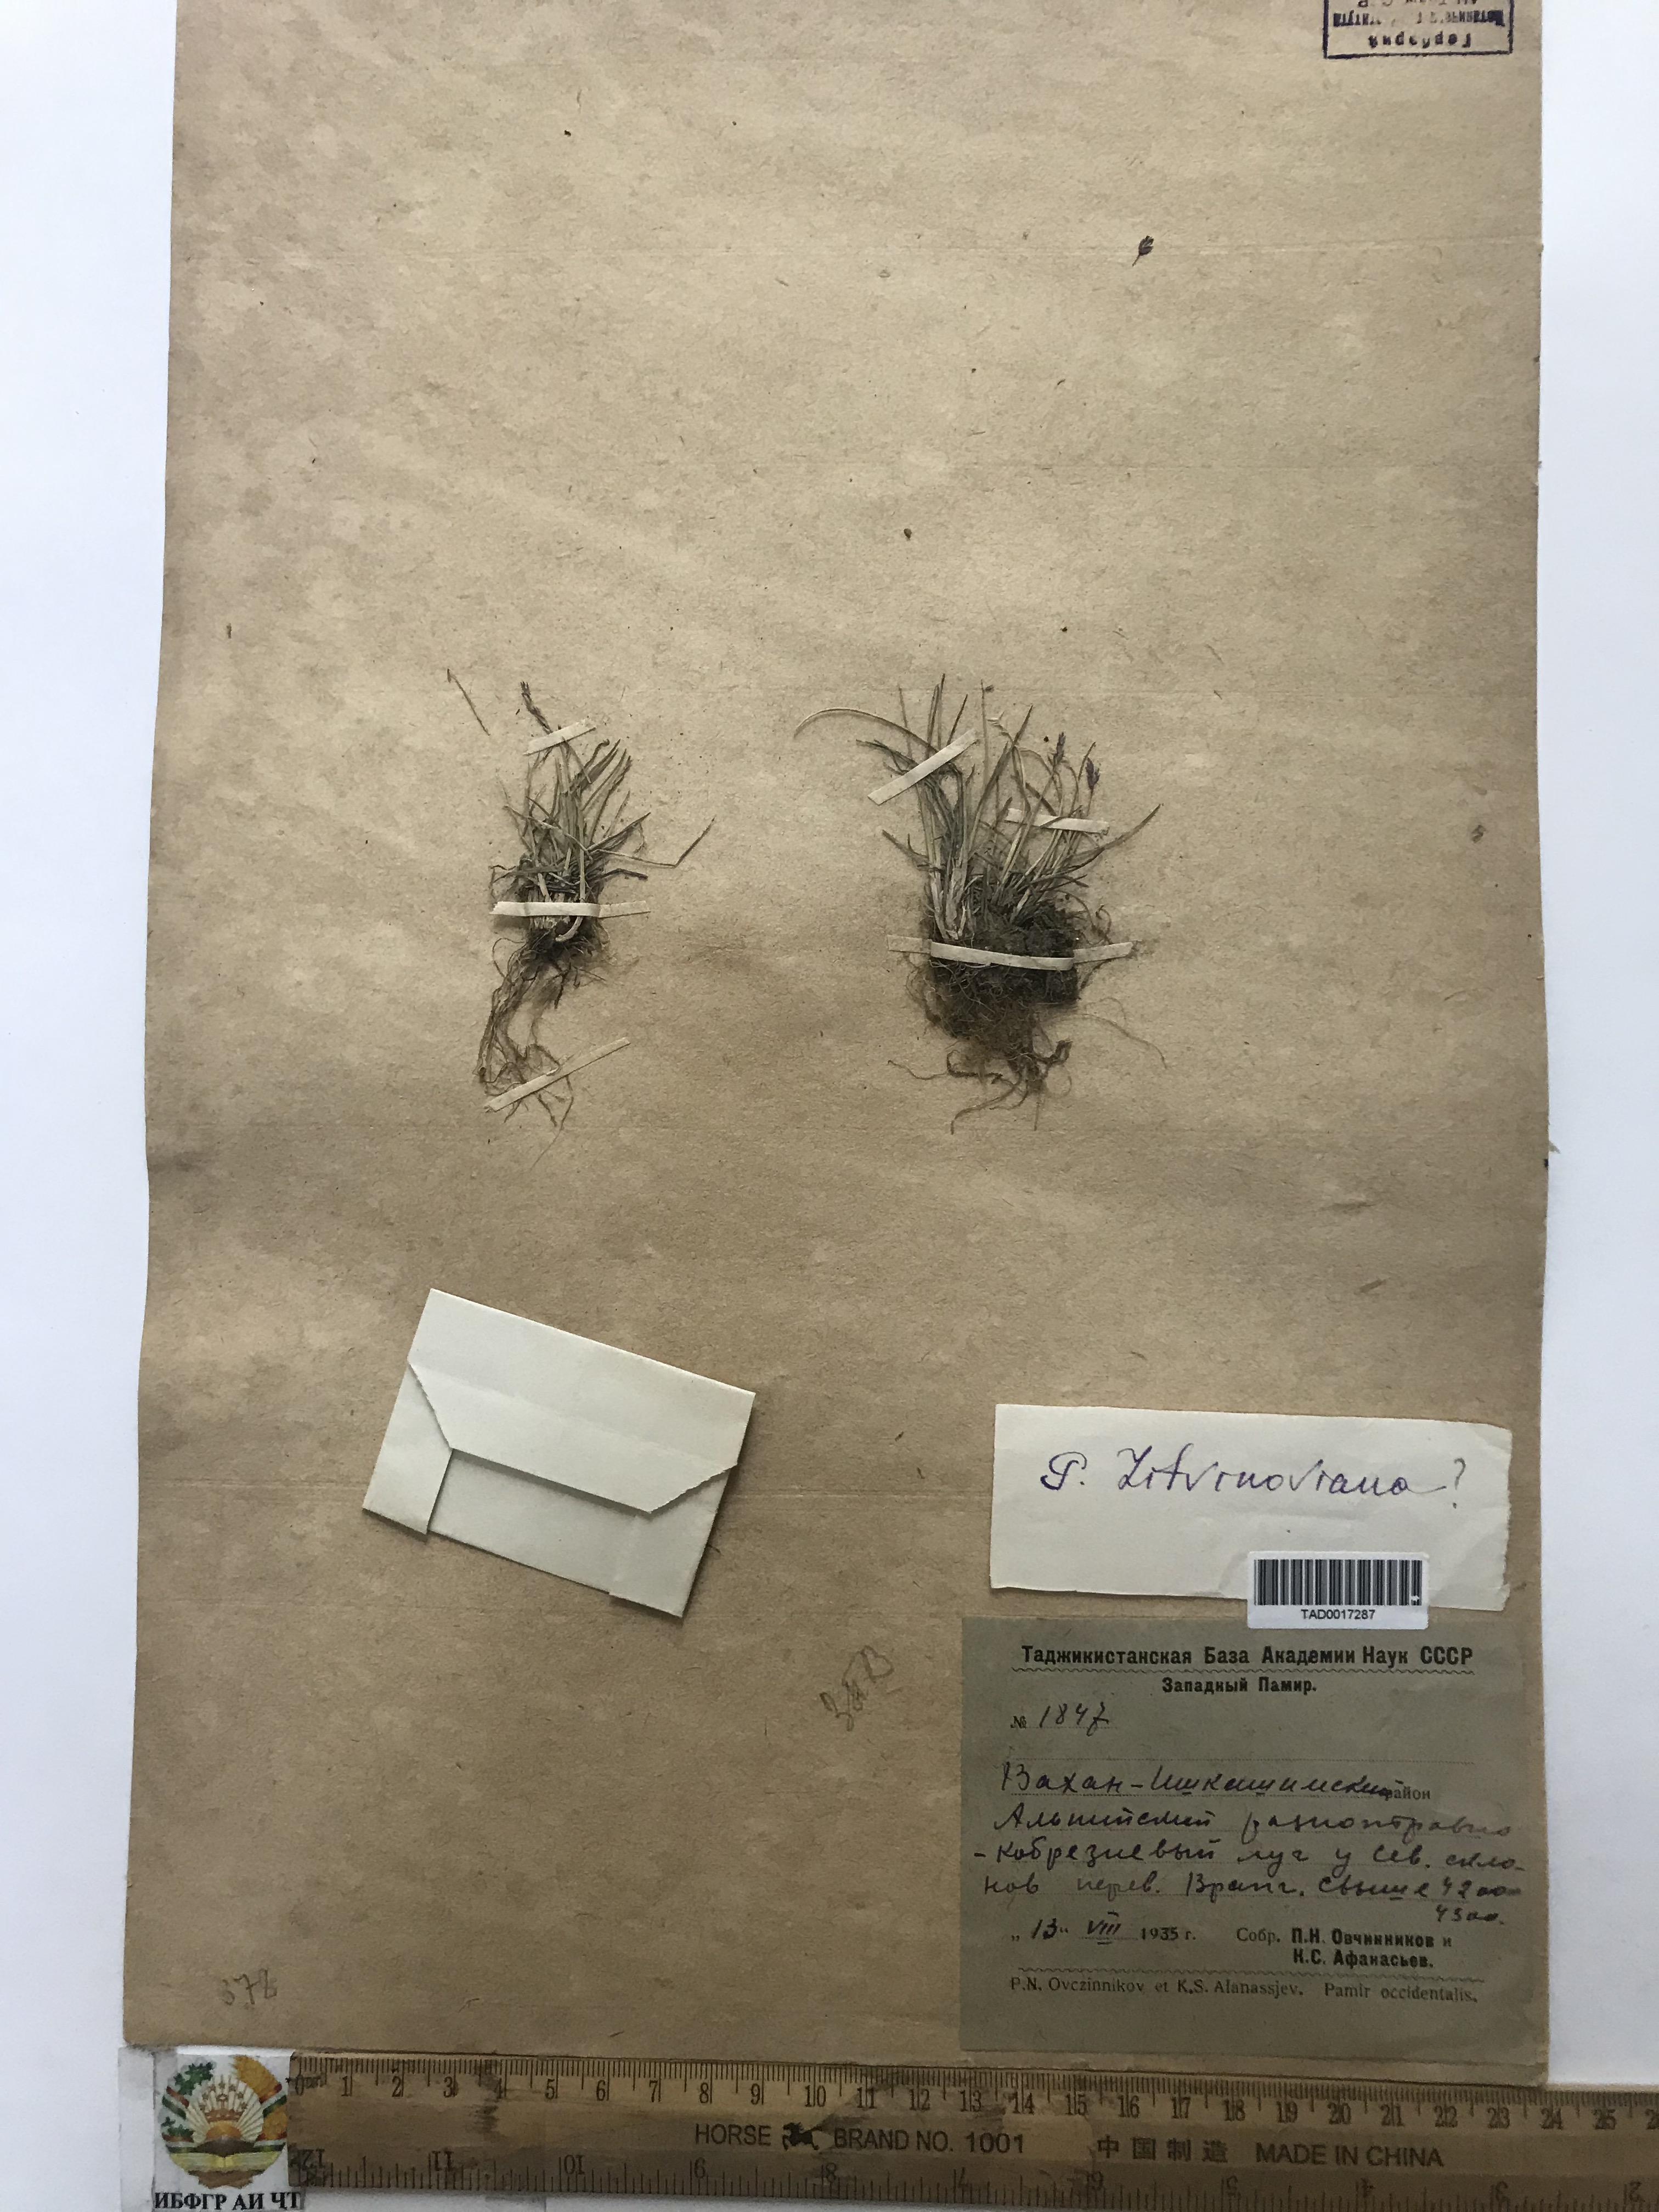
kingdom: Plantae
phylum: Tracheophyta
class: Liliopsida
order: Poales
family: Poaceae
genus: Poa
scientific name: Poa glauca
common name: Glaucous bluegrass
